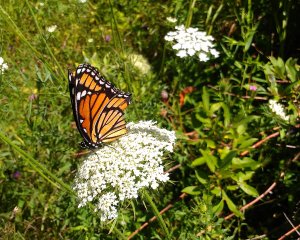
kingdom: Animalia
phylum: Arthropoda
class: Insecta
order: Lepidoptera
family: Nymphalidae
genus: Limenitis
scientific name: Limenitis archippus
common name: Viceroy
